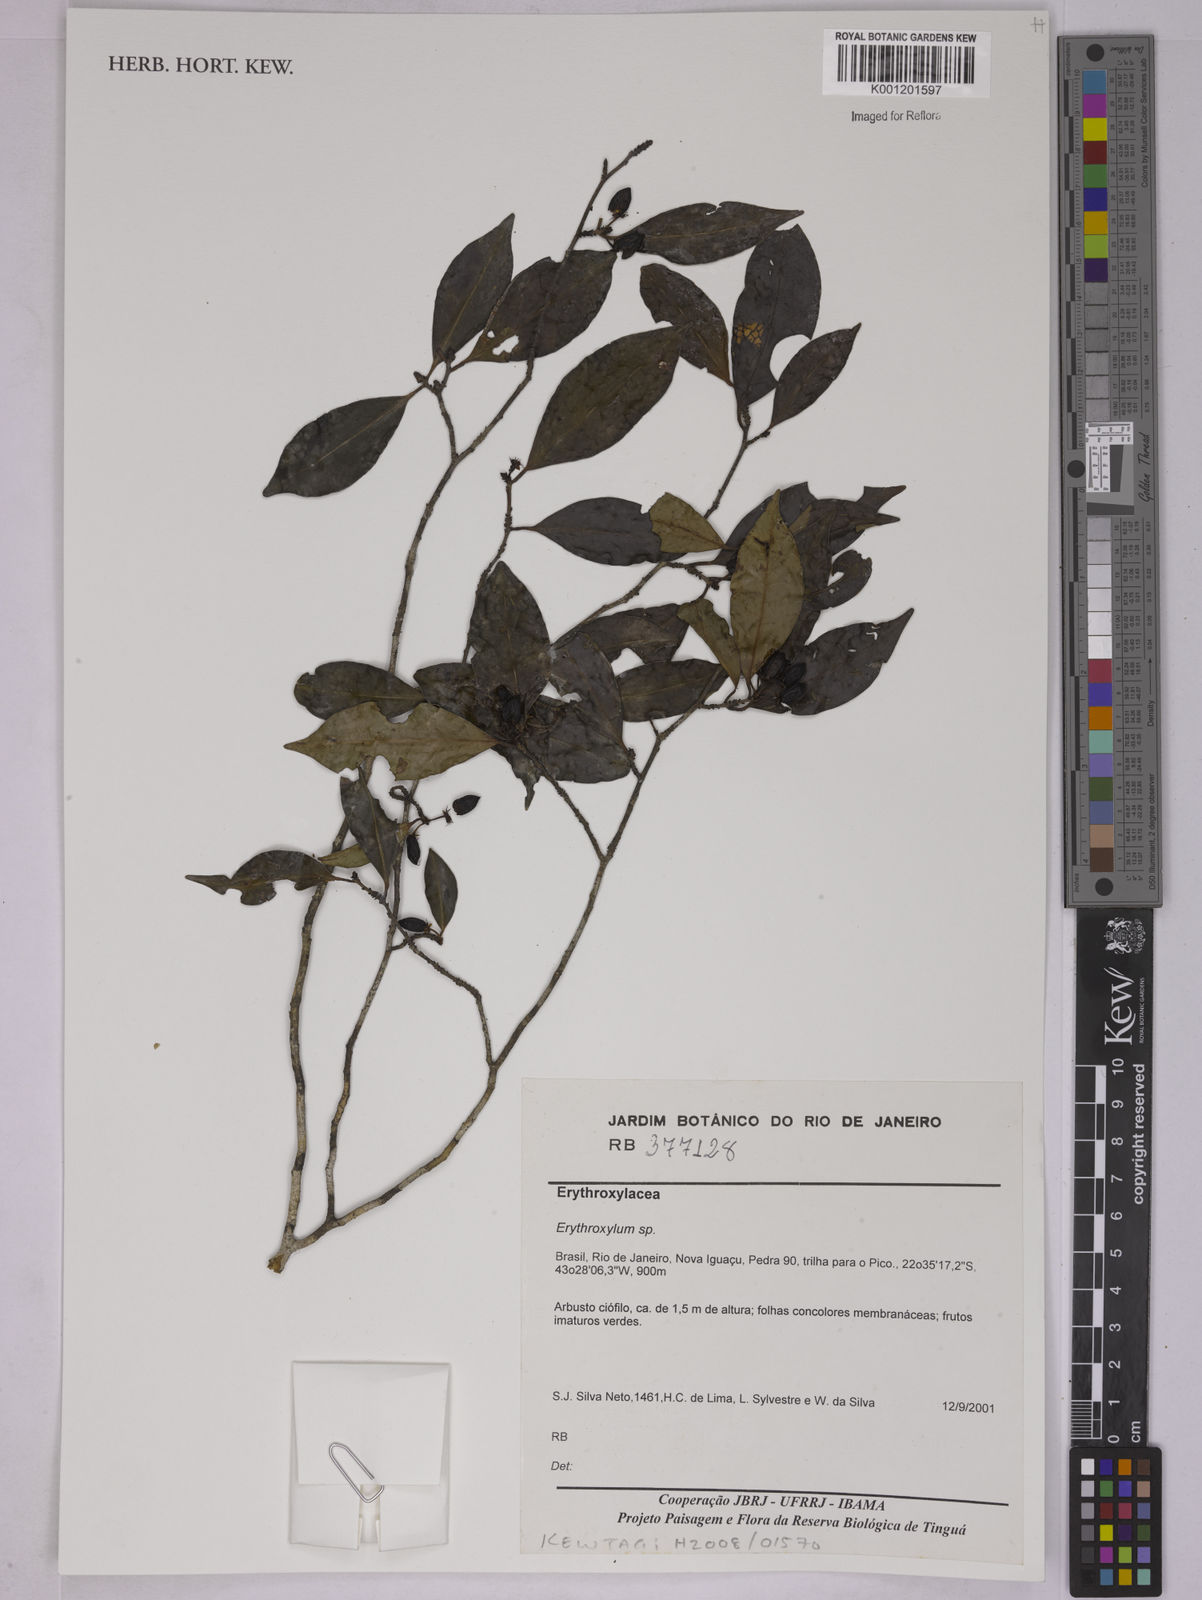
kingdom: Plantae
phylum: Tracheophyta
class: Magnoliopsida
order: Malpighiales
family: Erythroxylaceae
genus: Erythroxylum
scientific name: Erythroxylum
